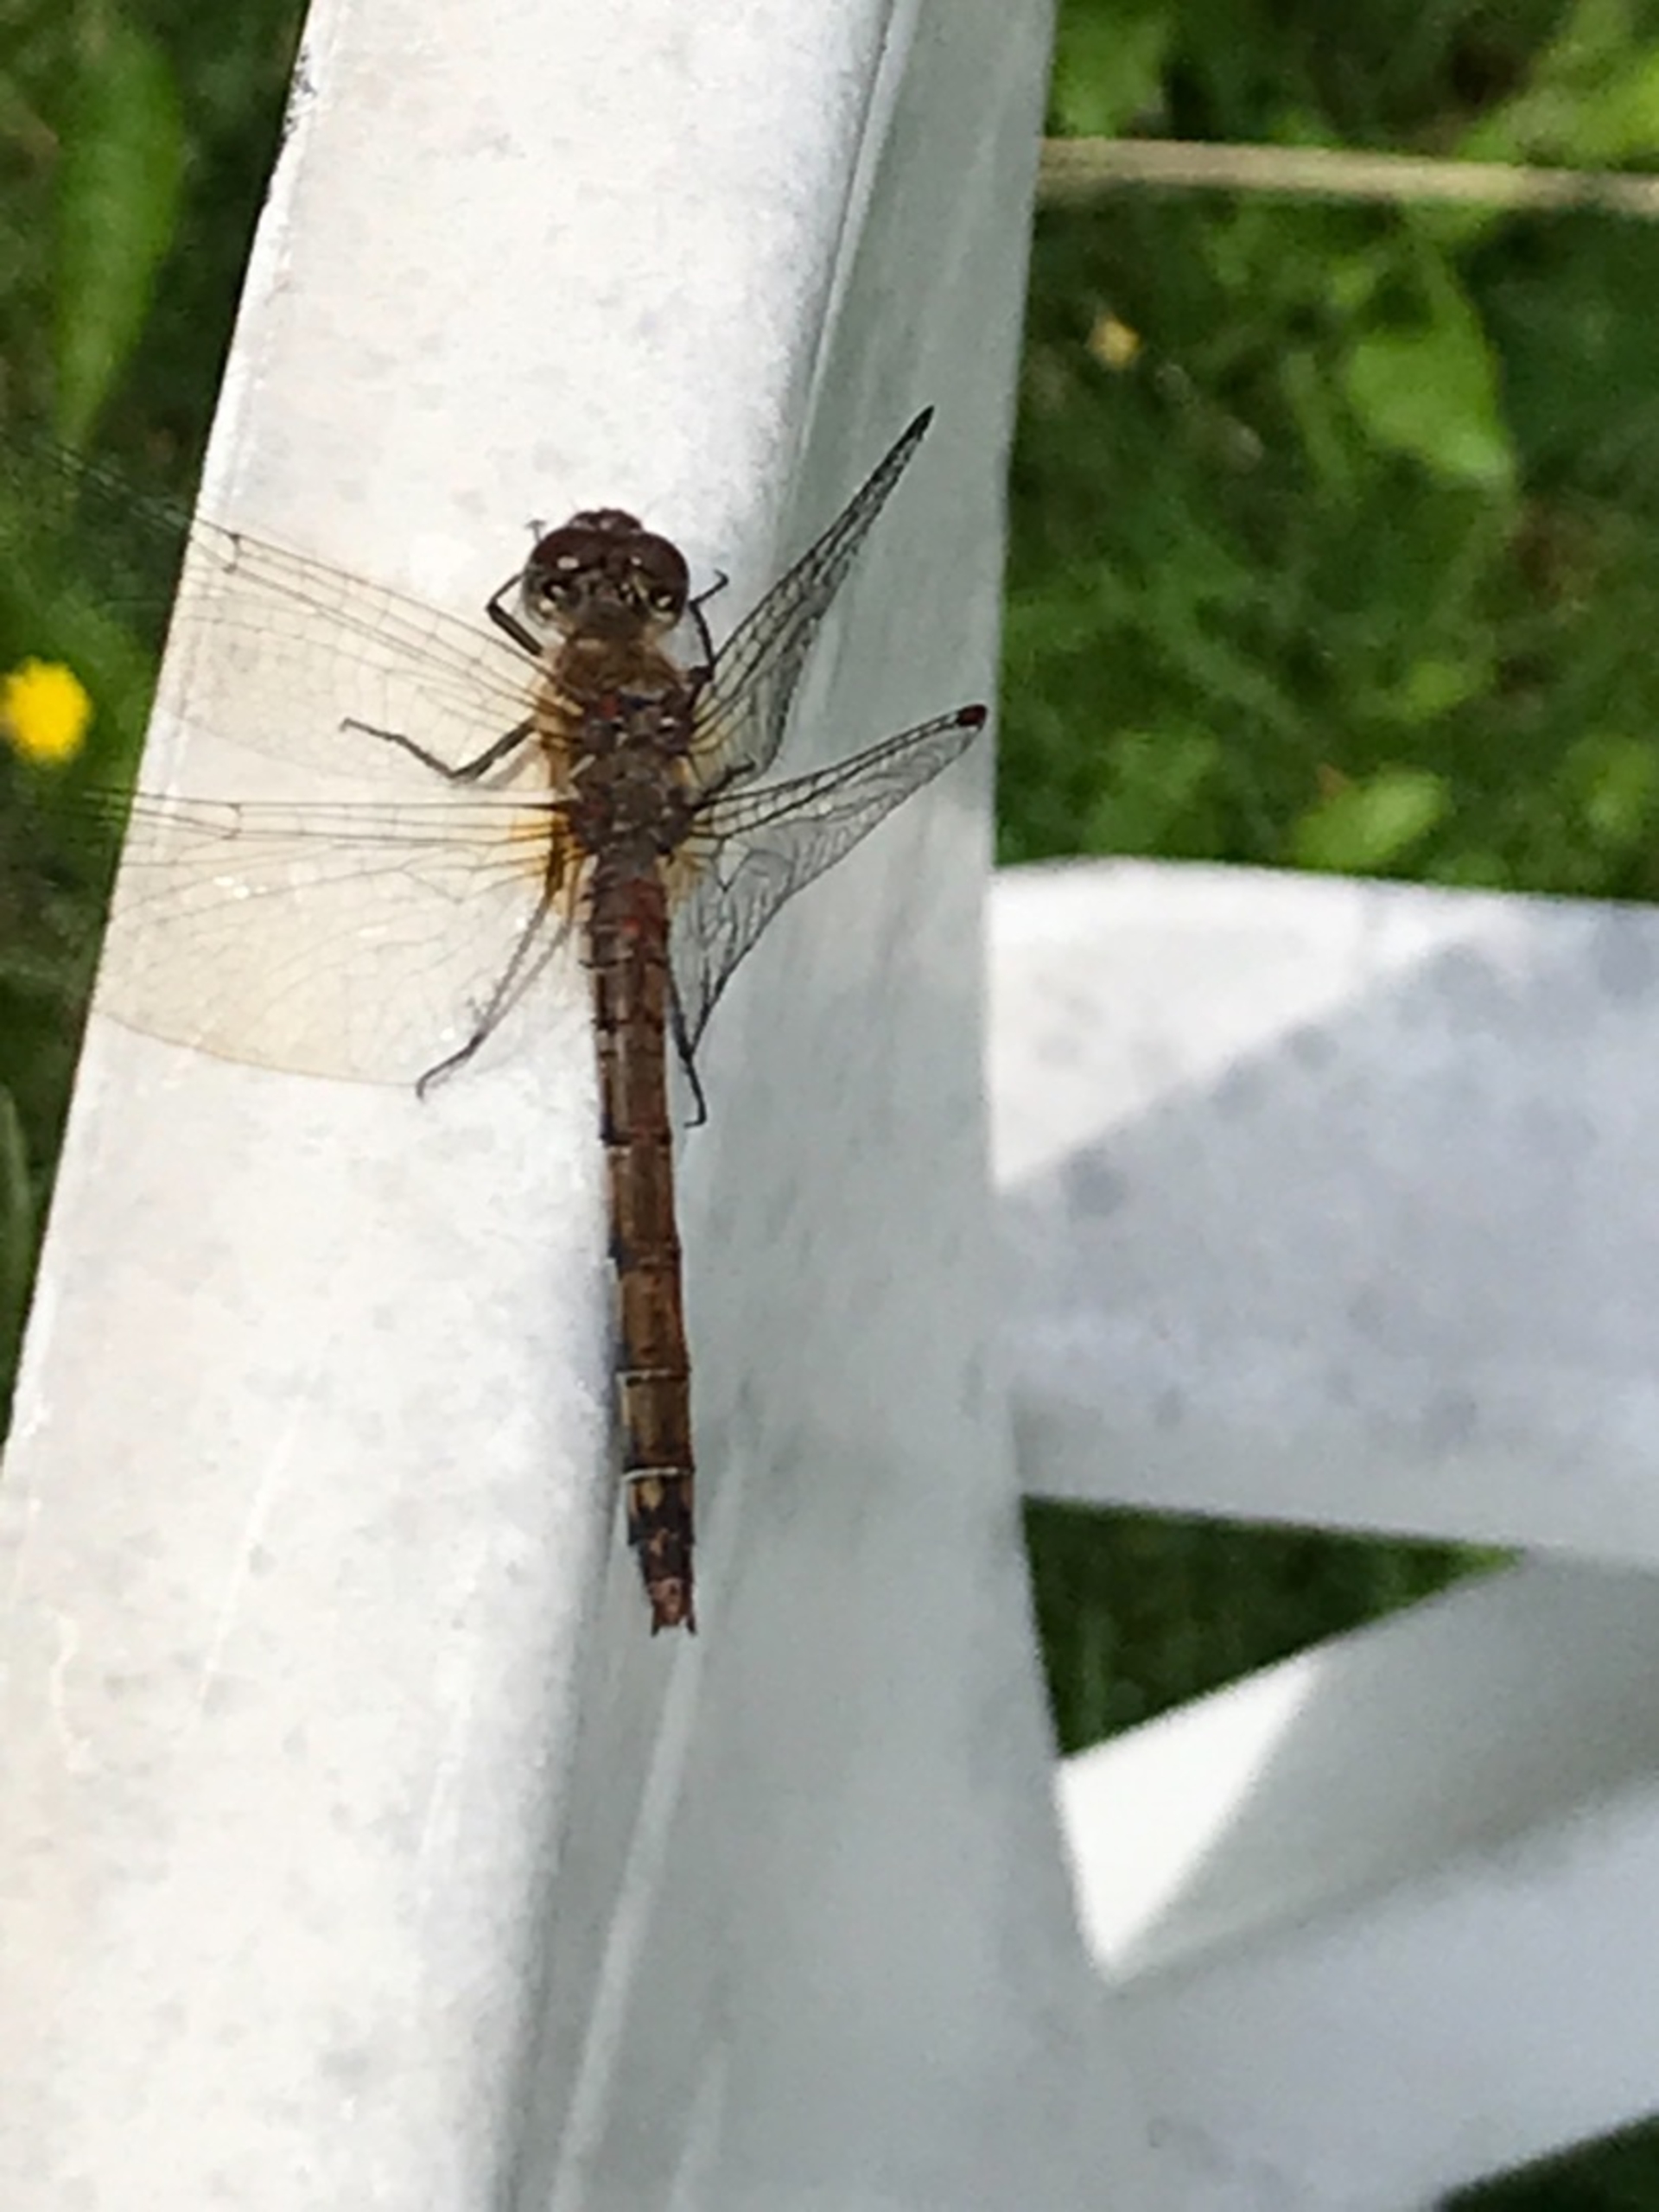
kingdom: Animalia
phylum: Arthropoda
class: Insecta
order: Odonata
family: Libellulidae
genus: Sympetrum
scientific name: Sympetrum
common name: Hedelibeller
